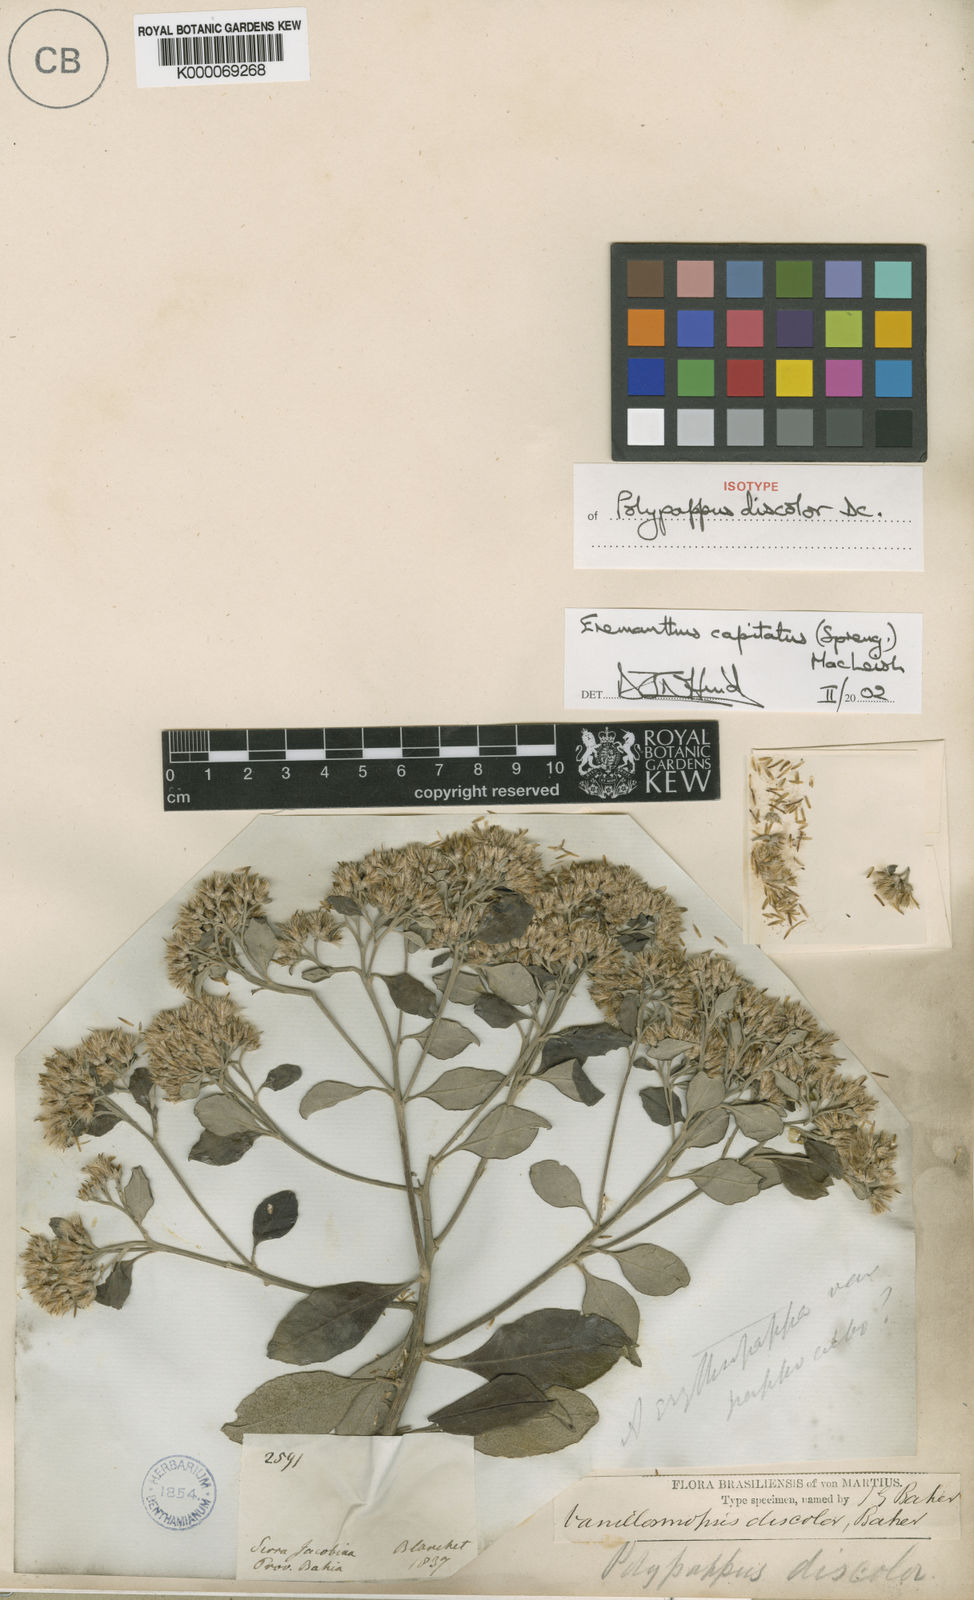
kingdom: Plantae
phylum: Tracheophyta
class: Magnoliopsida
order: Asterales
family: Asteraceae
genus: Eremanthus
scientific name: Eremanthus capitatus
